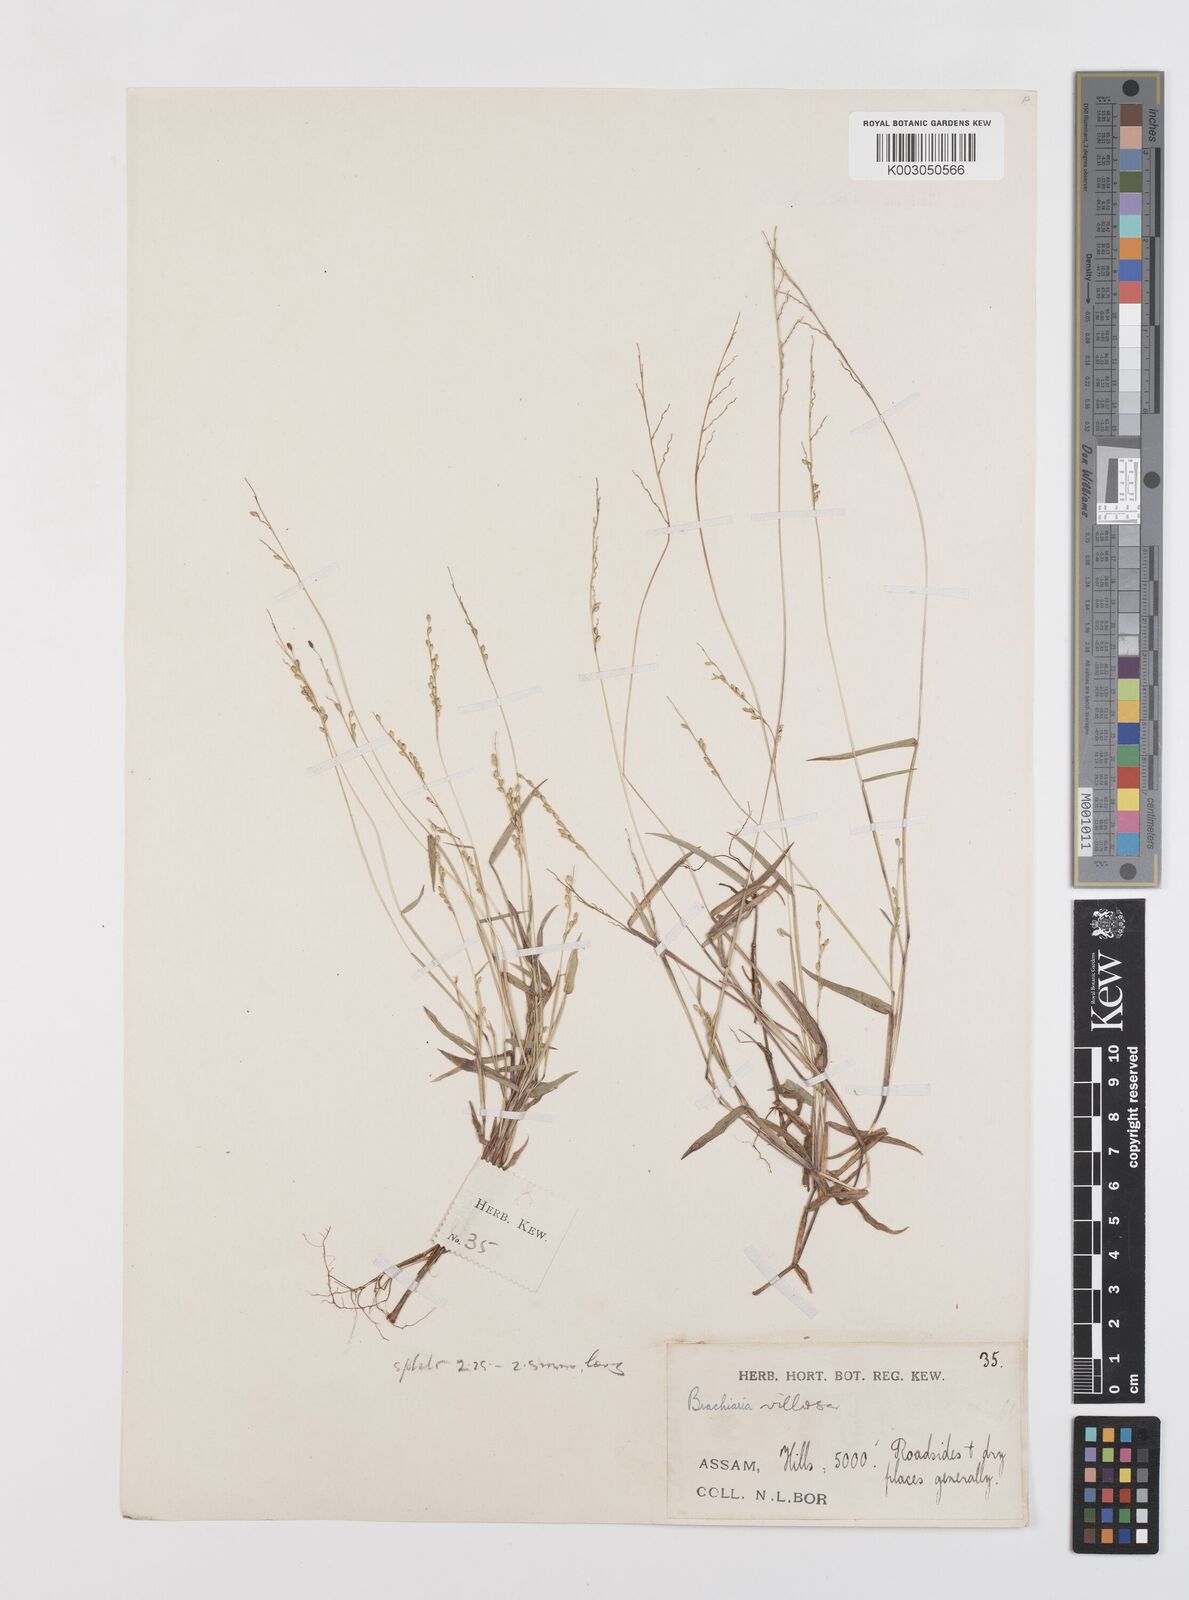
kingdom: Plantae
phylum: Tracheophyta
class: Liliopsida
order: Poales
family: Poaceae
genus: Urochloa
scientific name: Urochloa villosa
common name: Hairy signalgrass
